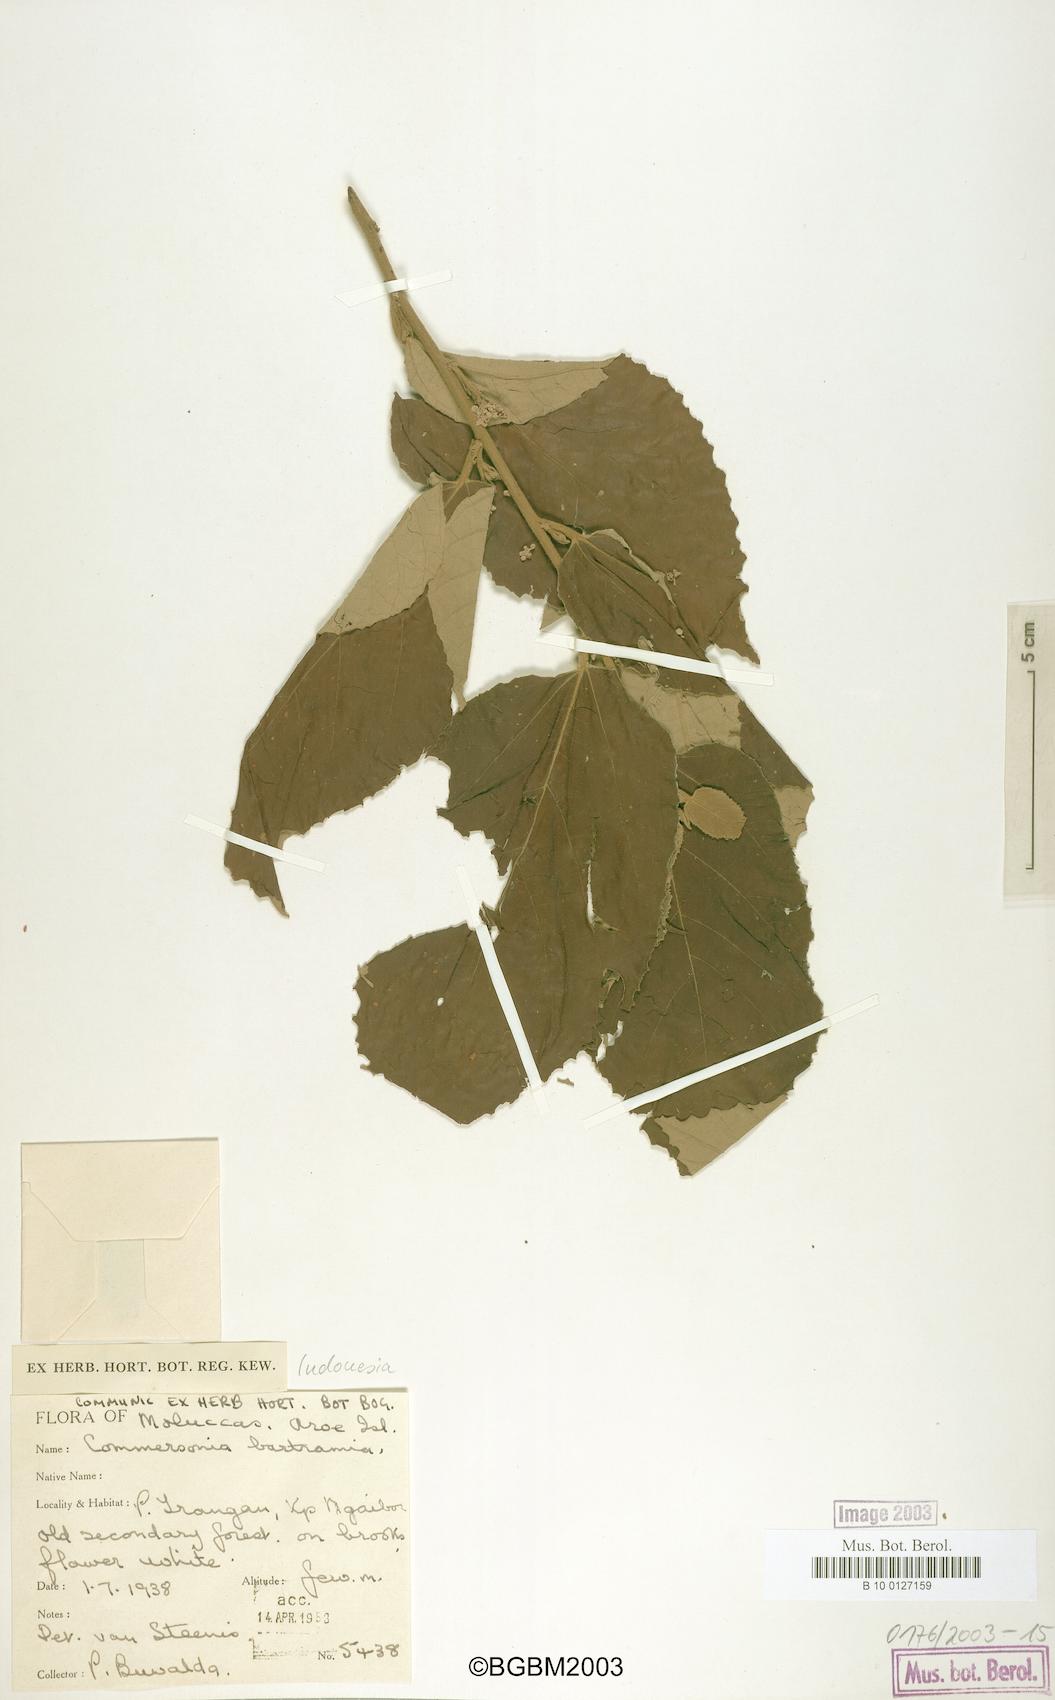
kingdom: Plantae
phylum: Tracheophyta
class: Magnoliopsida
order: Malvales
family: Malvaceae
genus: Commersonia
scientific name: Commersonia bartramia
